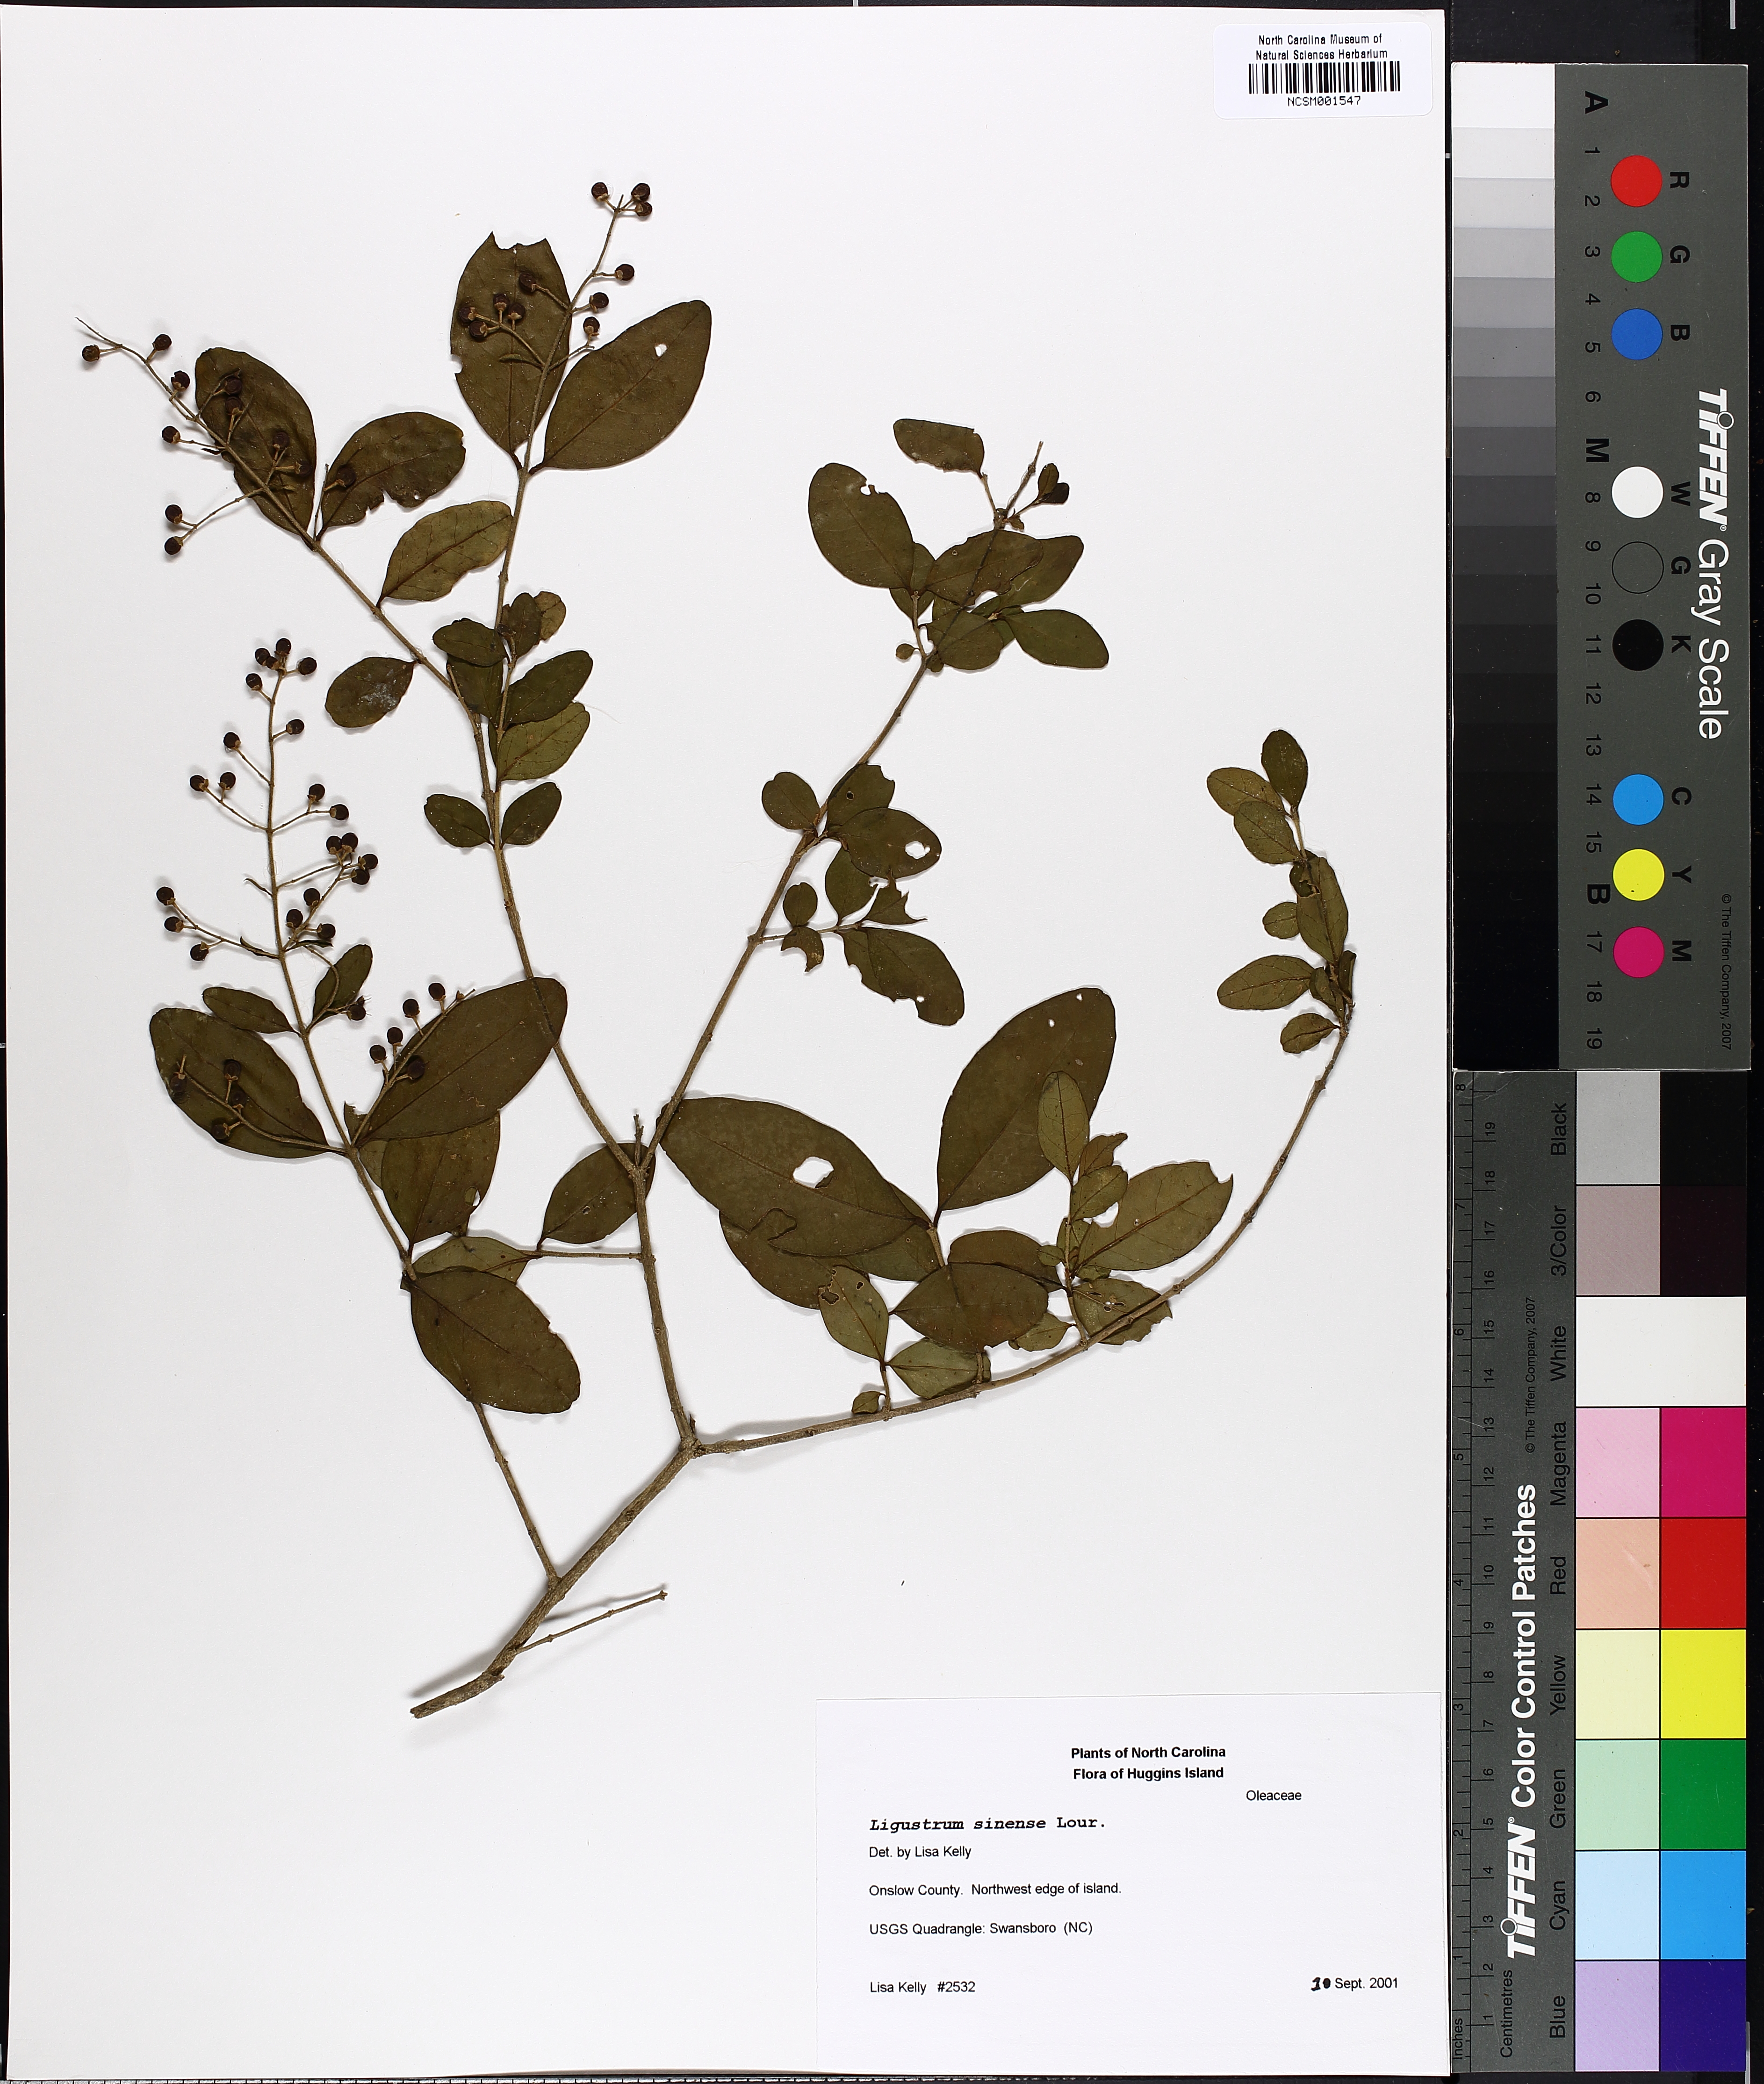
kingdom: Plantae
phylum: Tracheophyta
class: Magnoliopsida
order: Lamiales
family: Oleaceae
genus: Ligustrum
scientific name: Ligustrum sinense
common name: Chinese privet
